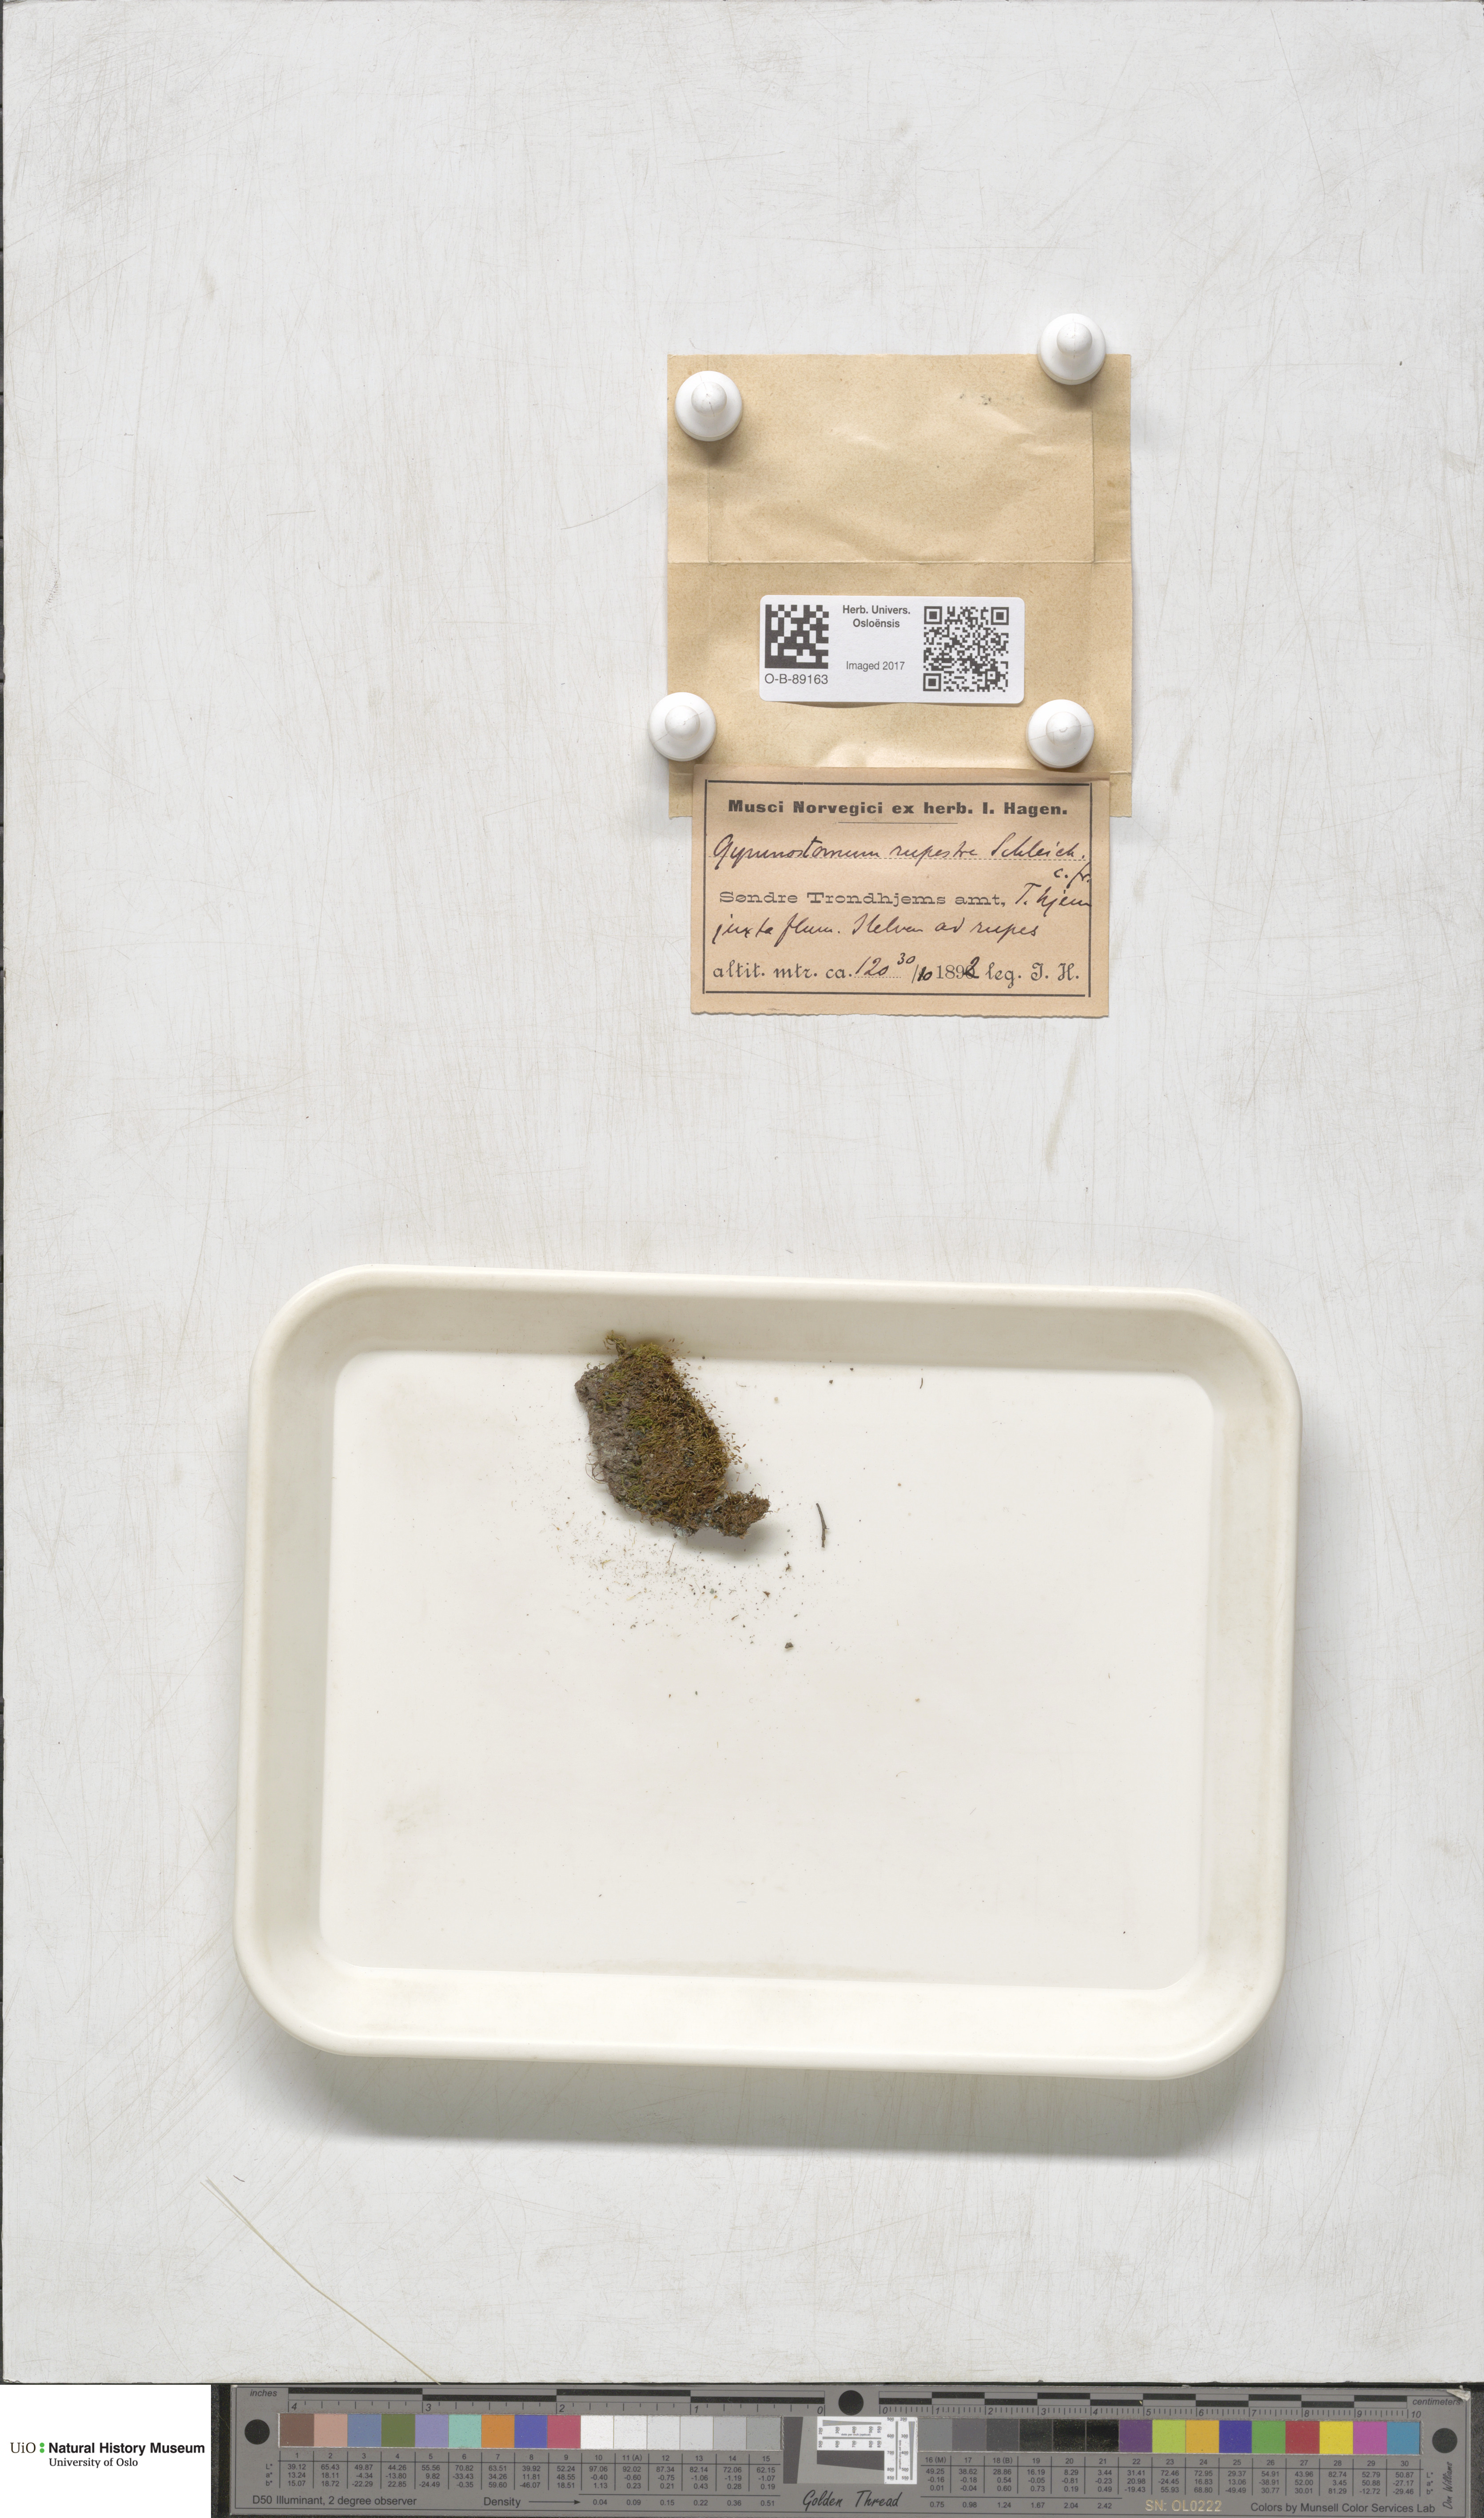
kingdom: Plantae
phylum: Bryophyta
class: Bryopsida
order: Pottiales
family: Pottiaceae
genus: Gymnostomum
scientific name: Gymnostomum aeruginosum
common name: Verdigris tufa-moss
